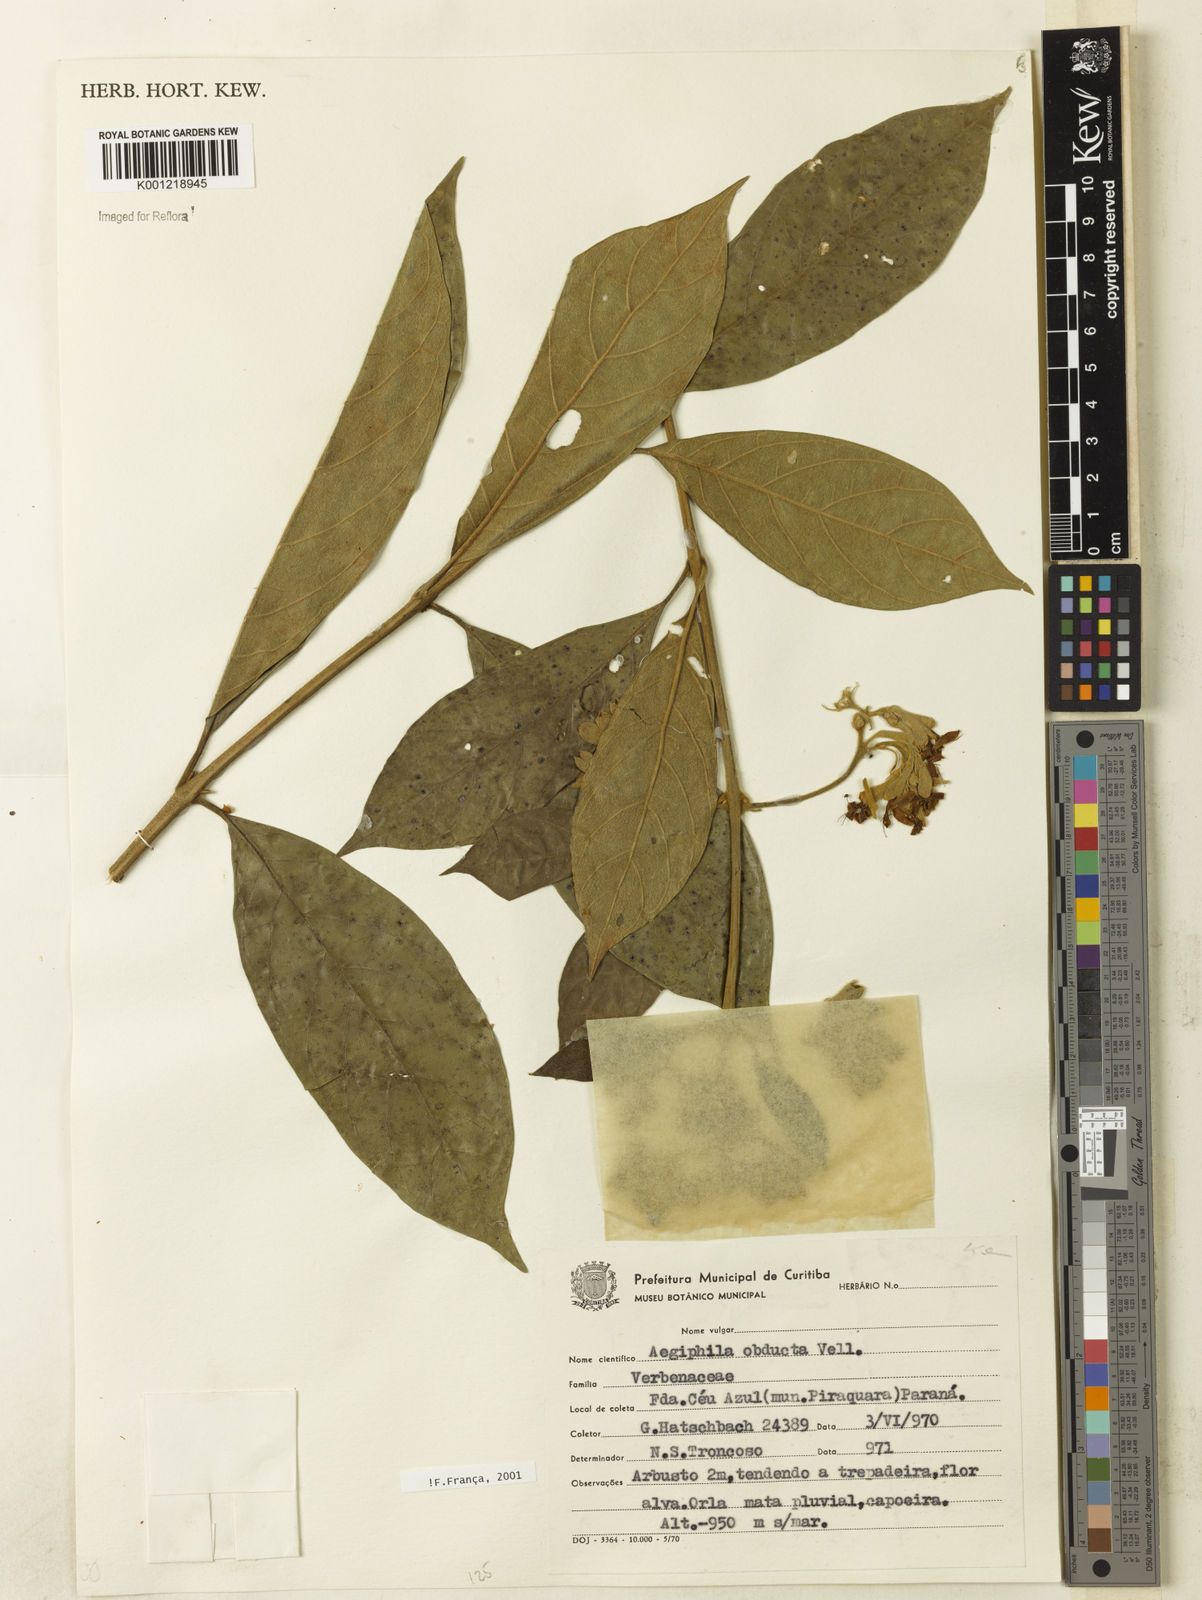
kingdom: Plantae
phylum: Tracheophyta
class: Magnoliopsida
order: Lamiales
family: Lamiaceae
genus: Aegiphila
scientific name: Aegiphila obducta
